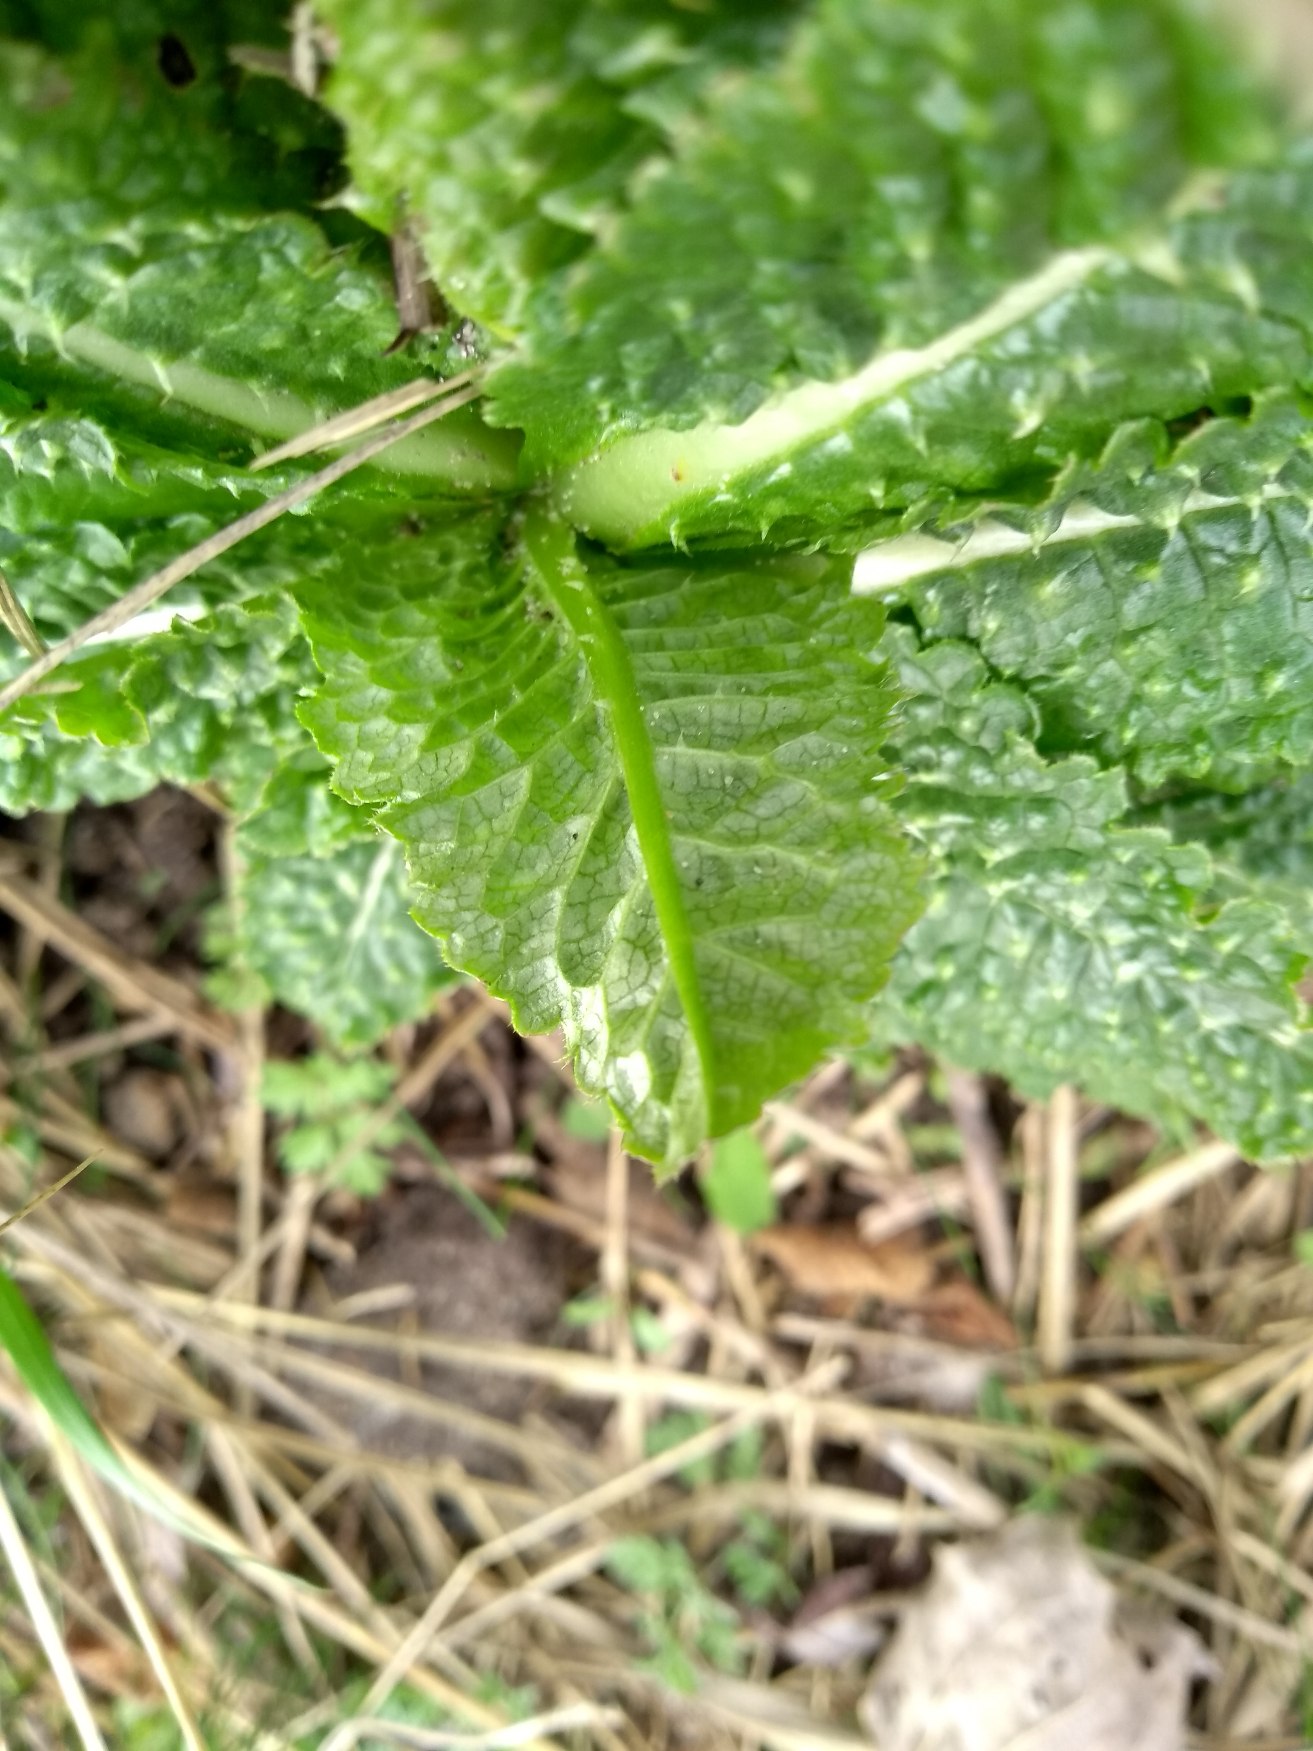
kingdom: Plantae
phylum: Tracheophyta
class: Magnoliopsida
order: Dipsacales
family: Caprifoliaceae
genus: Dipsacus
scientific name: Dipsacus fullonum
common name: Gærde-kartebolle
